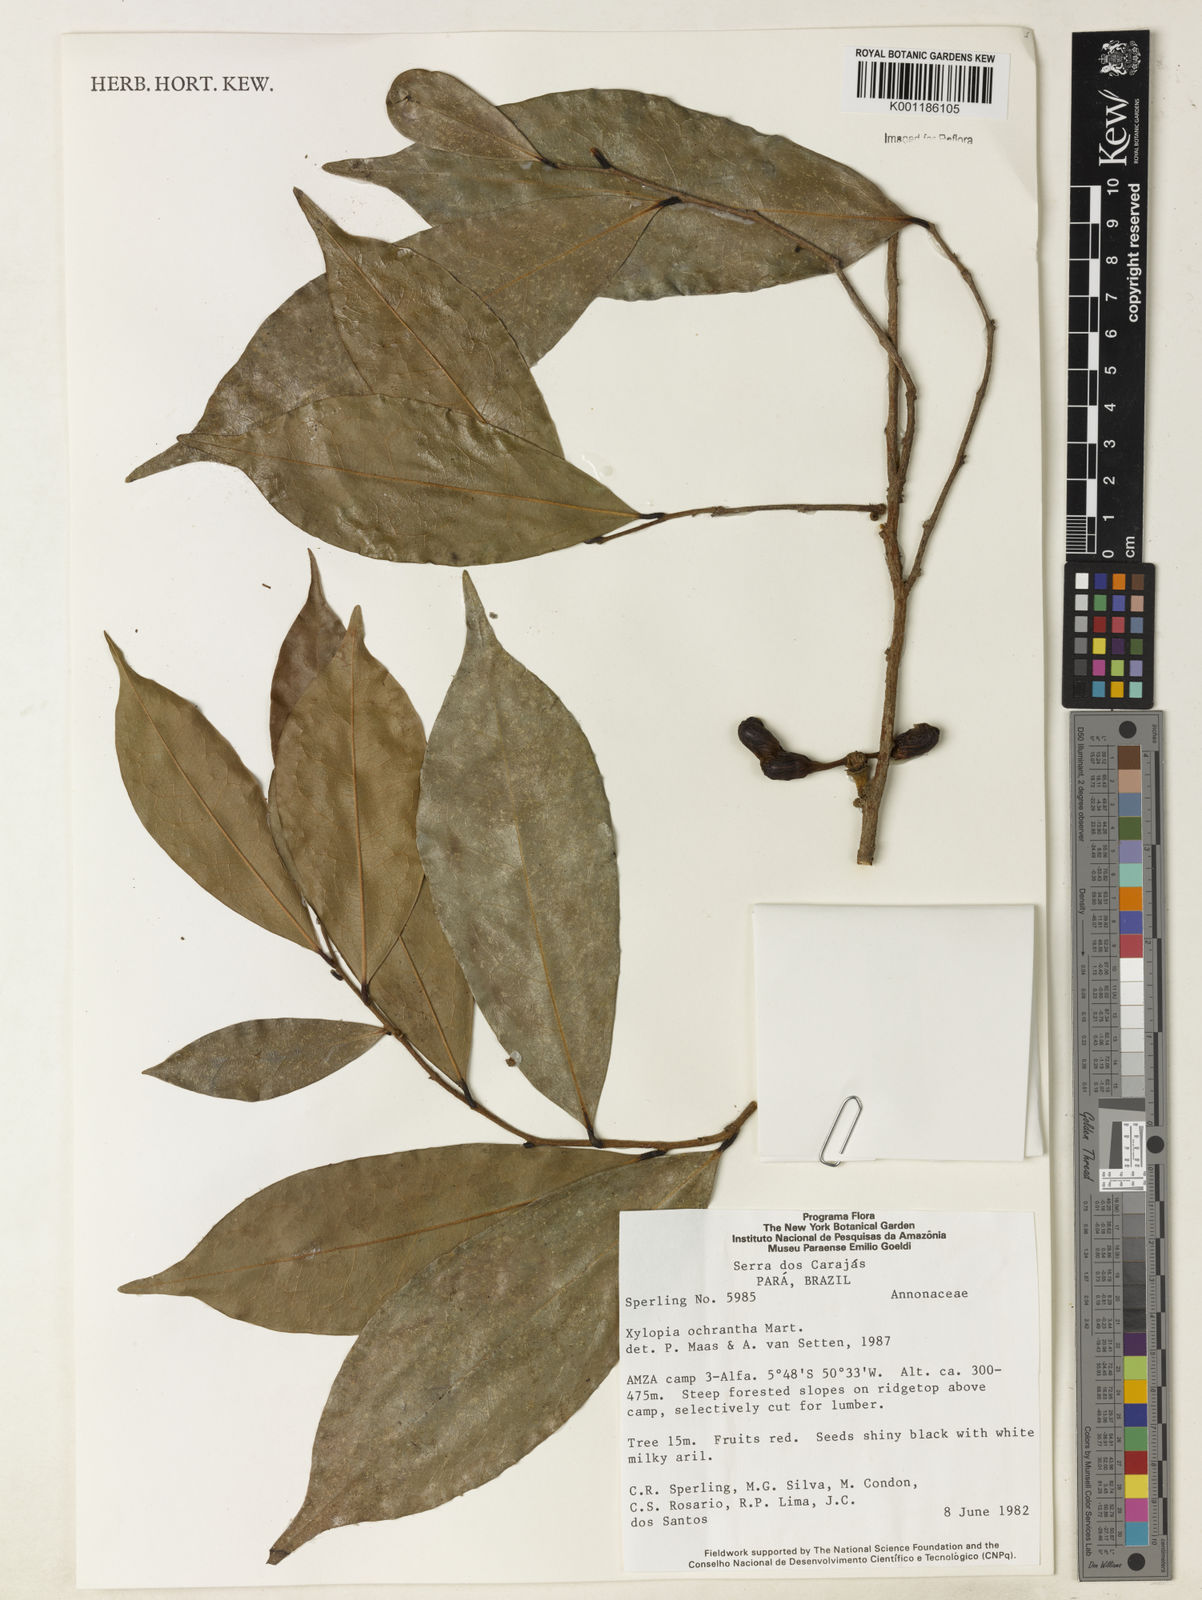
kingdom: Plantae
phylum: Tracheophyta
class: Magnoliopsida
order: Magnoliales
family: Annonaceae
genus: Xylopia
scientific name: Xylopia ochrantha
